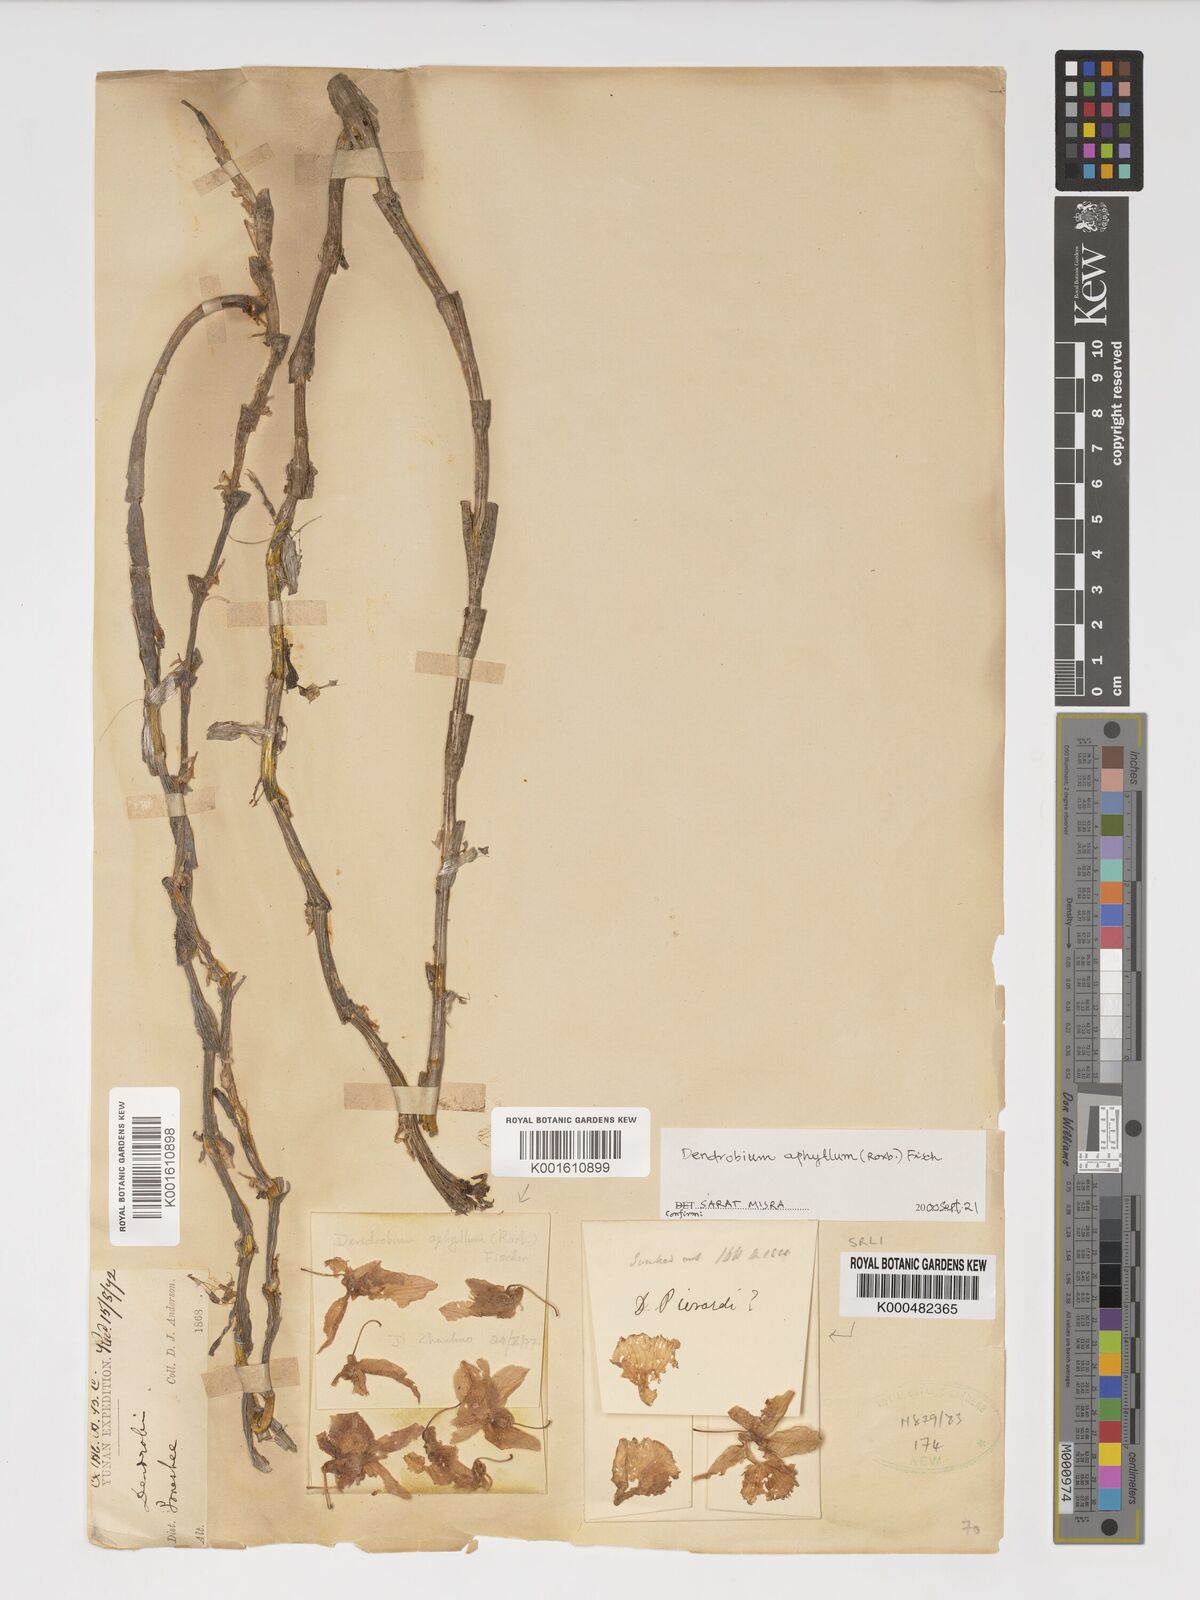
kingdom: Plantae
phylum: Tracheophyta
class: Liliopsida
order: Asparagales
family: Orchidaceae
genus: Dendrobium
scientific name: Dendrobium macrostachyum
